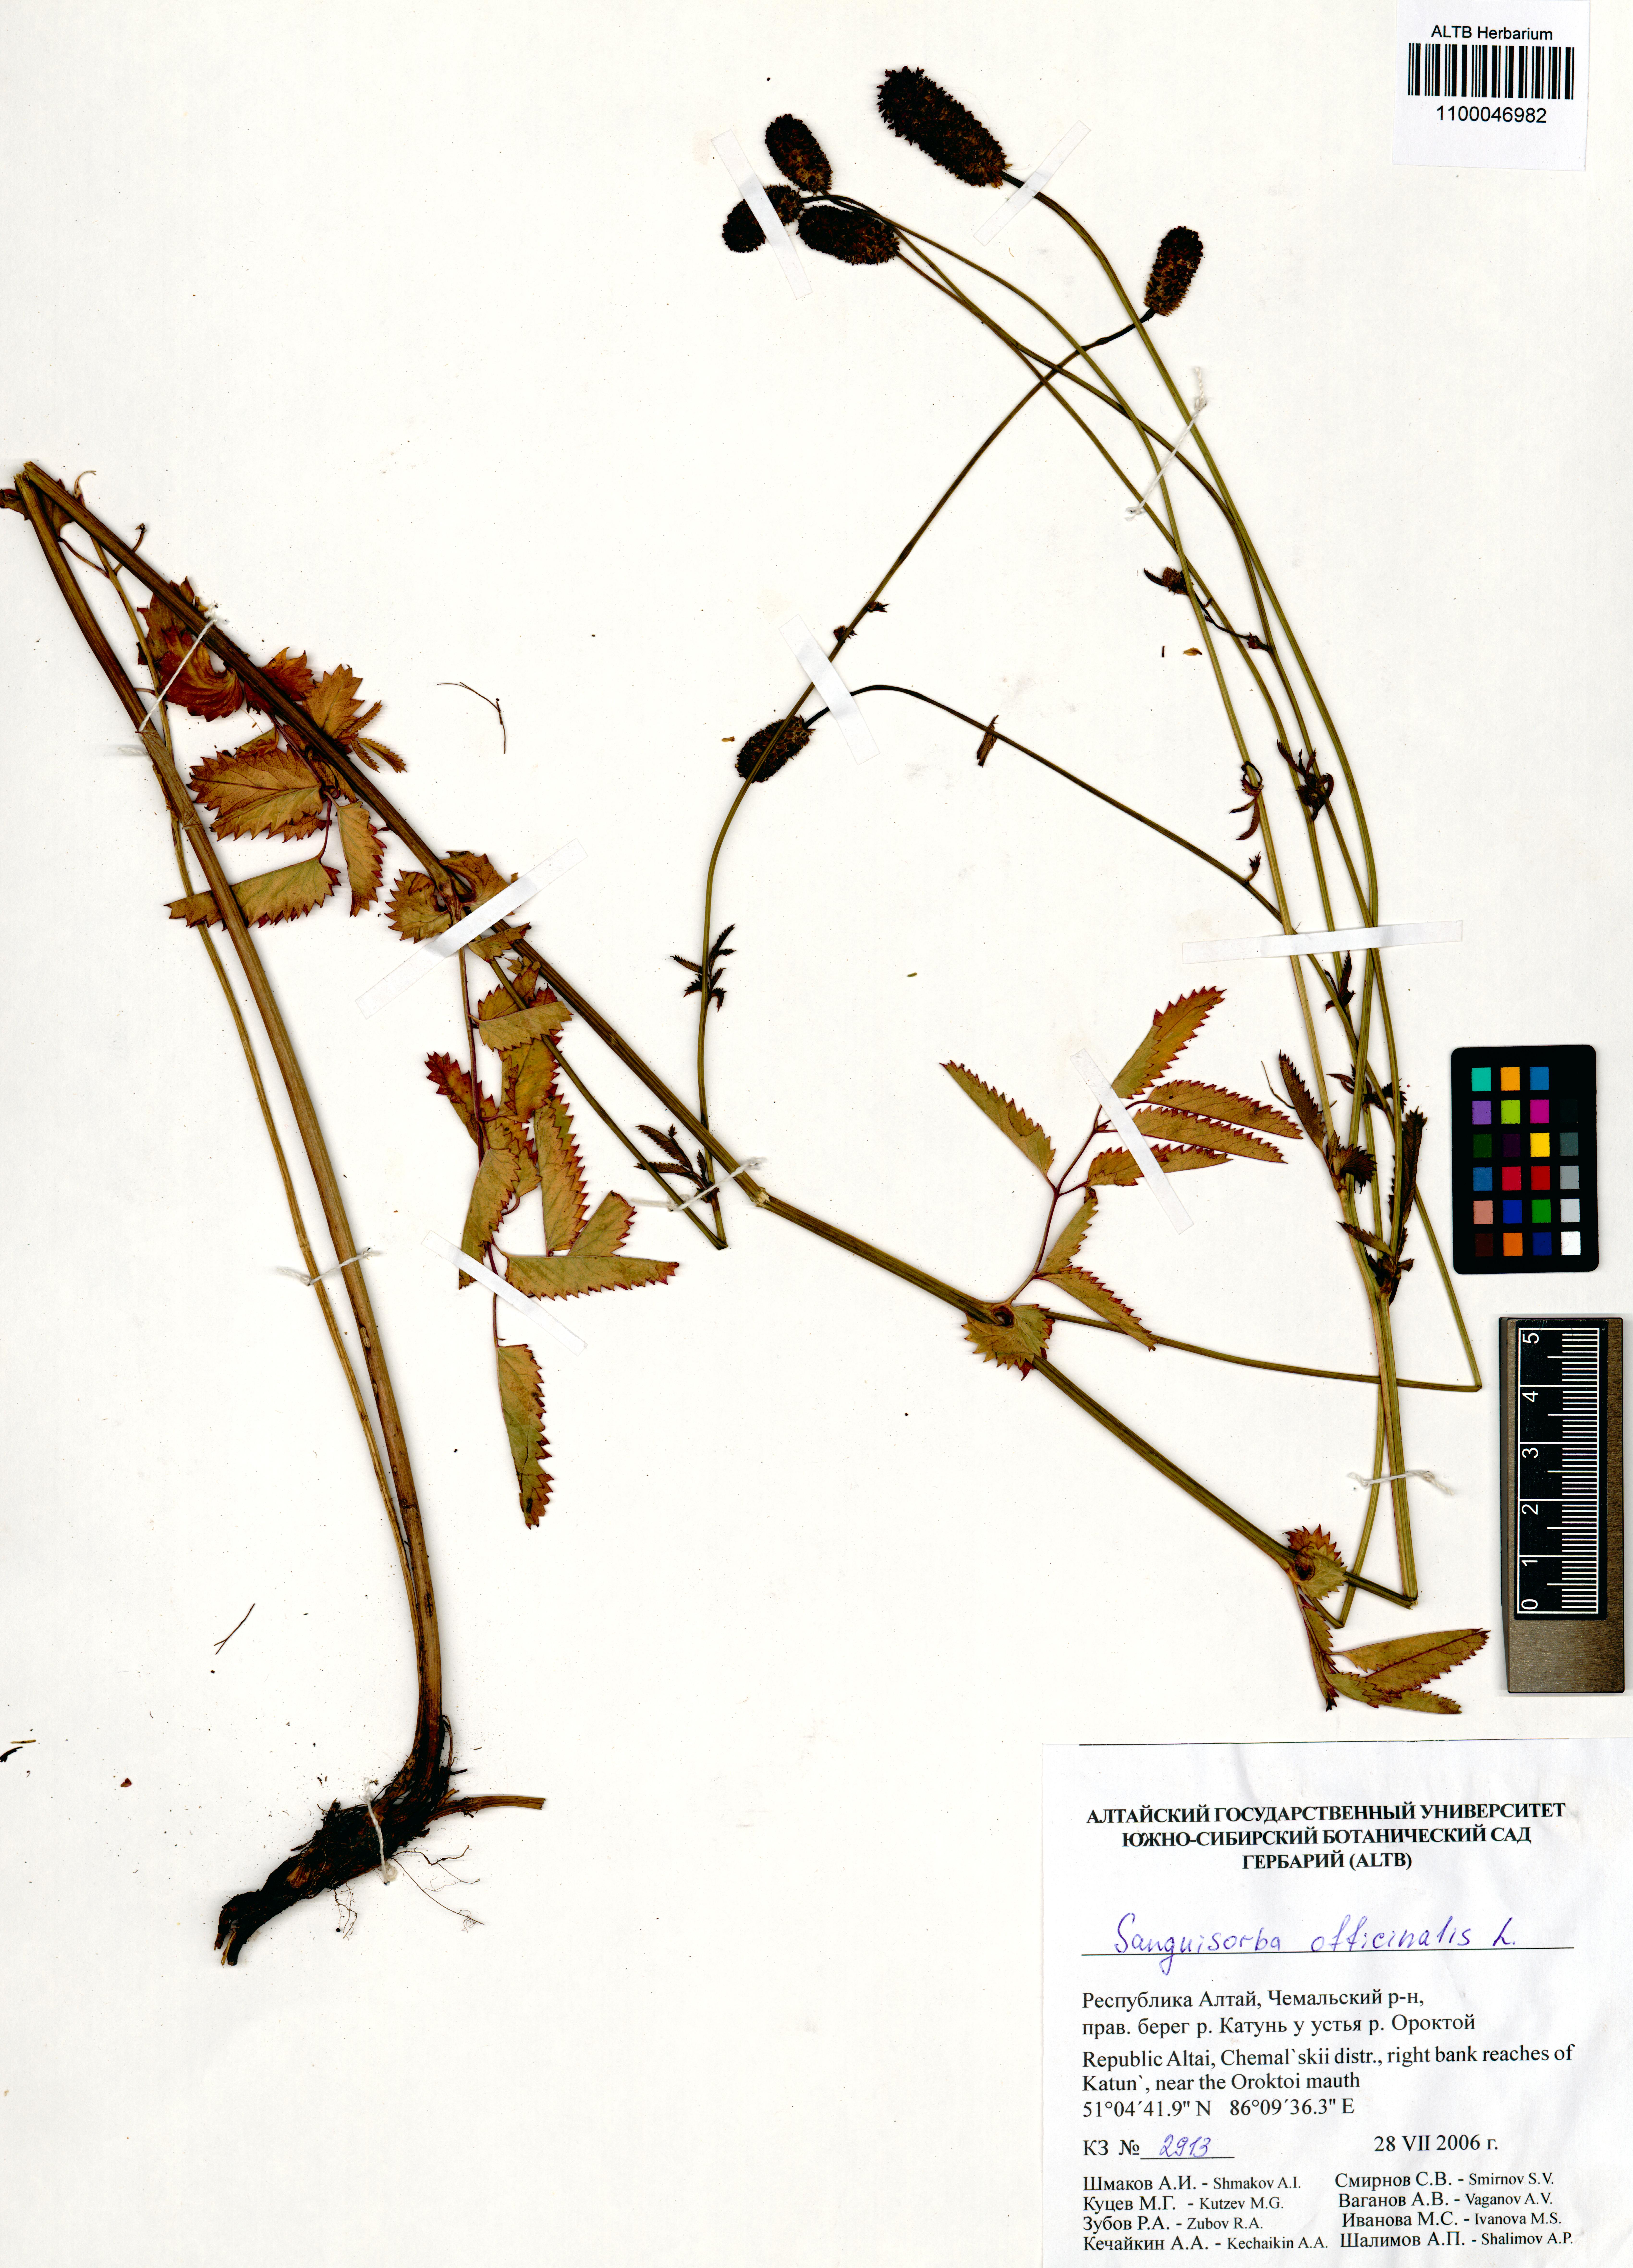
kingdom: Plantae
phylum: Tracheophyta
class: Magnoliopsida
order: Rosales
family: Rosaceae
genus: Sanguisorba
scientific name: Sanguisorba officinalis
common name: Great burnet
